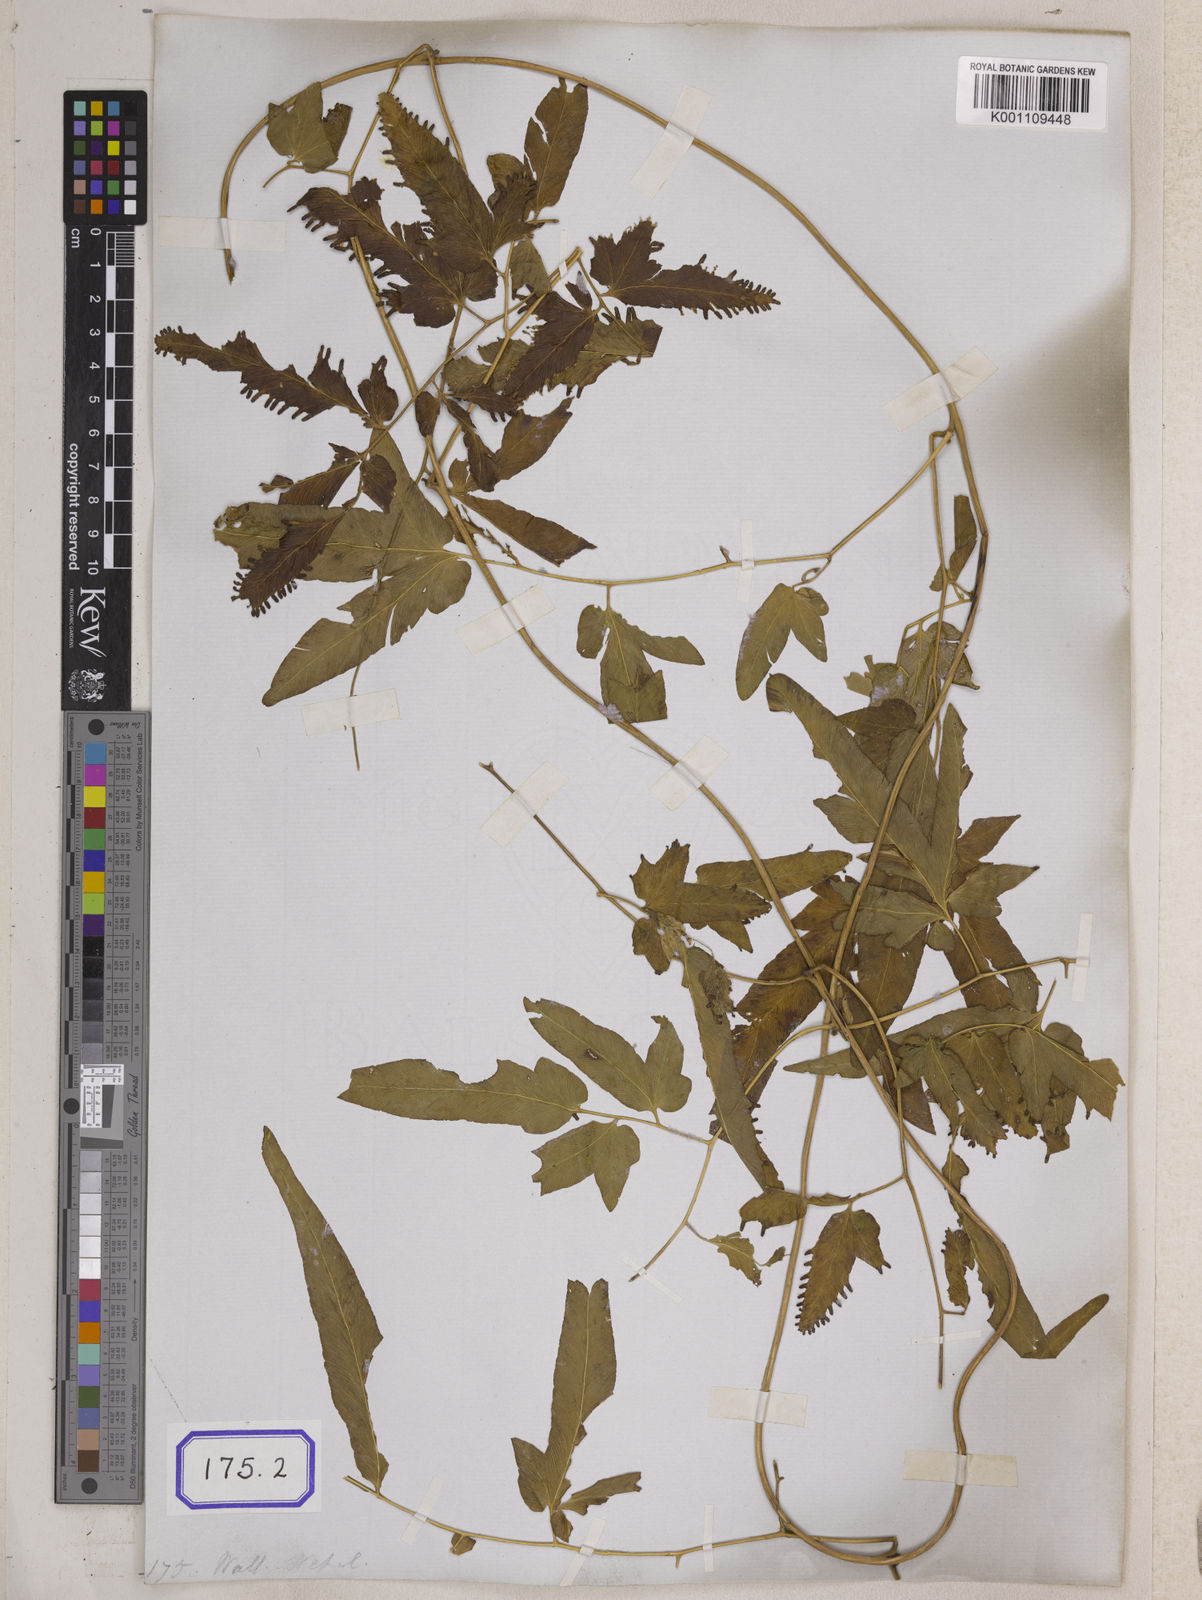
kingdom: Plantae
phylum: Tracheophyta
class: Polypodiopsida
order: Schizaeales
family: Lygodiaceae
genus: Lygodium
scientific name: Lygodium flexuosum
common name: Maidenhair creeper
